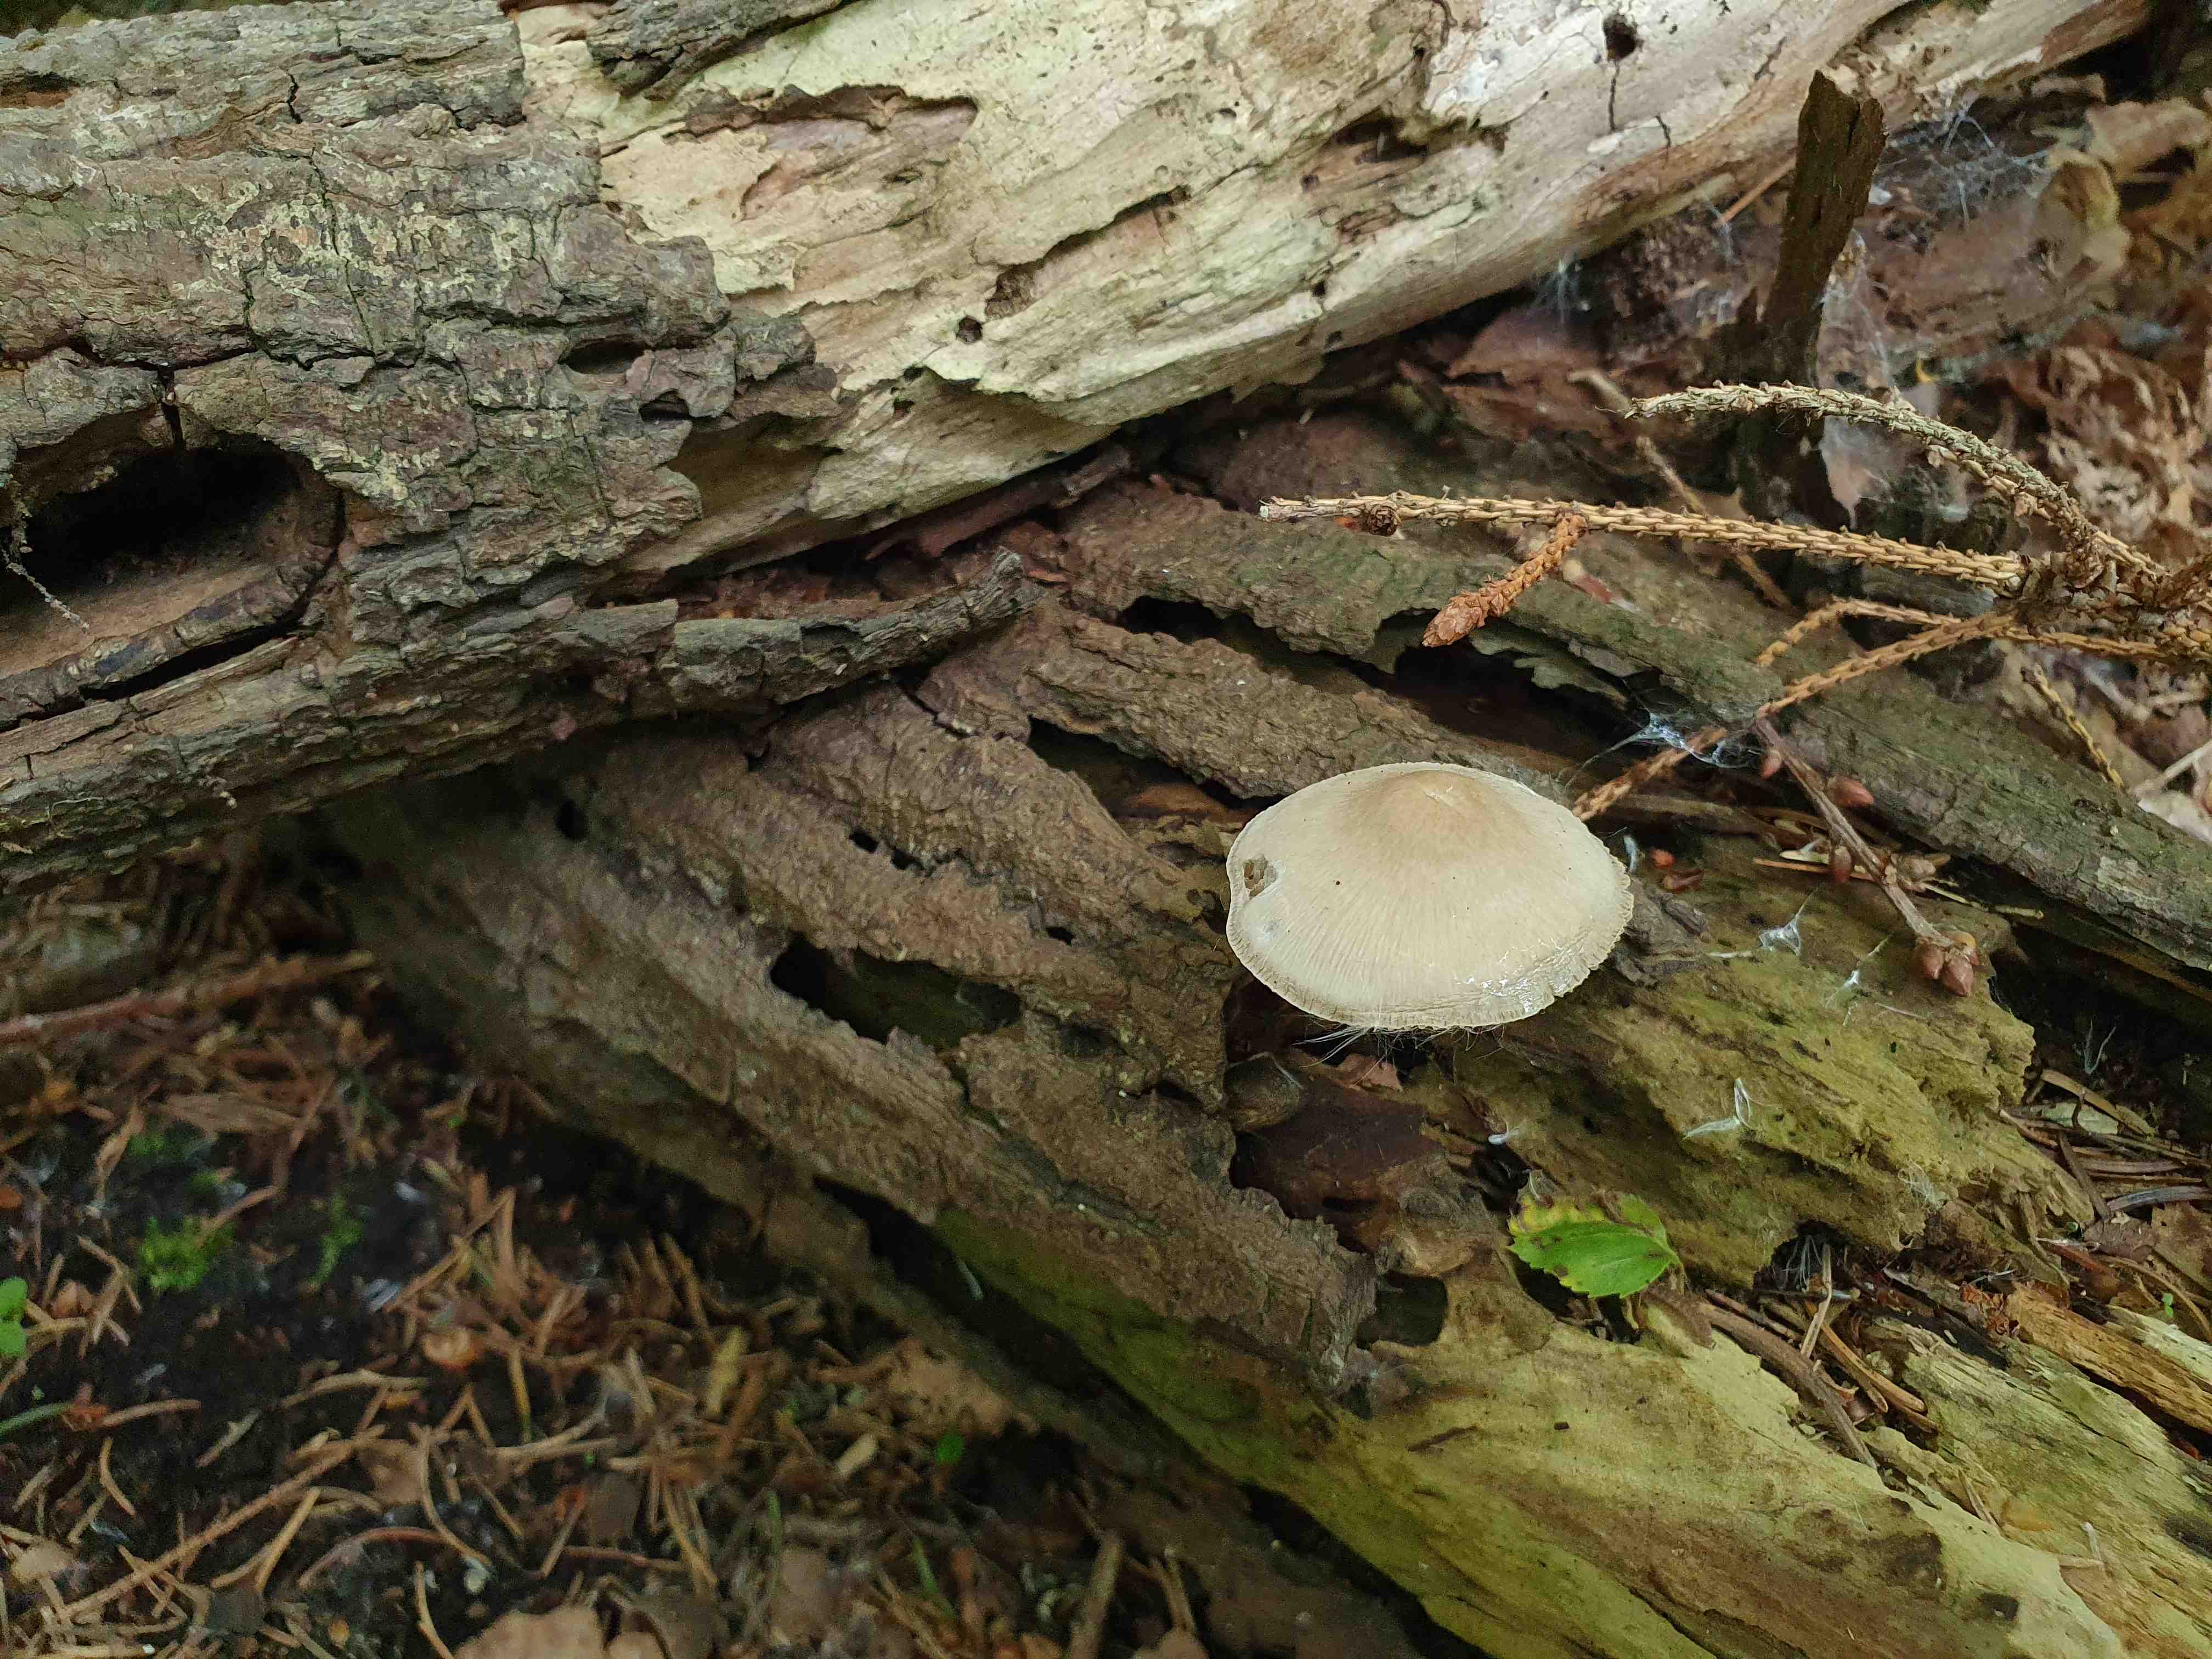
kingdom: Fungi
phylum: Basidiomycota
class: Agaricomycetes
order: Agaricales
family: Mycenaceae
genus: Mycena
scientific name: Mycena galericulata
